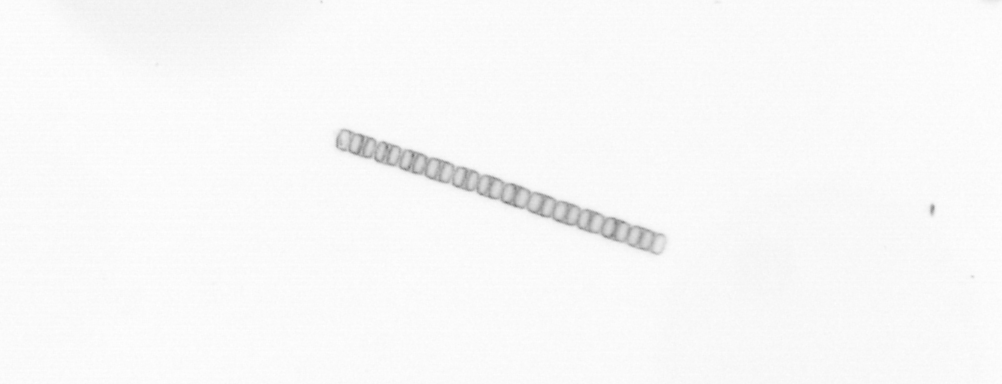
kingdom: Chromista
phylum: Ochrophyta
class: Bacillariophyceae
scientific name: Bacillariophyceae
